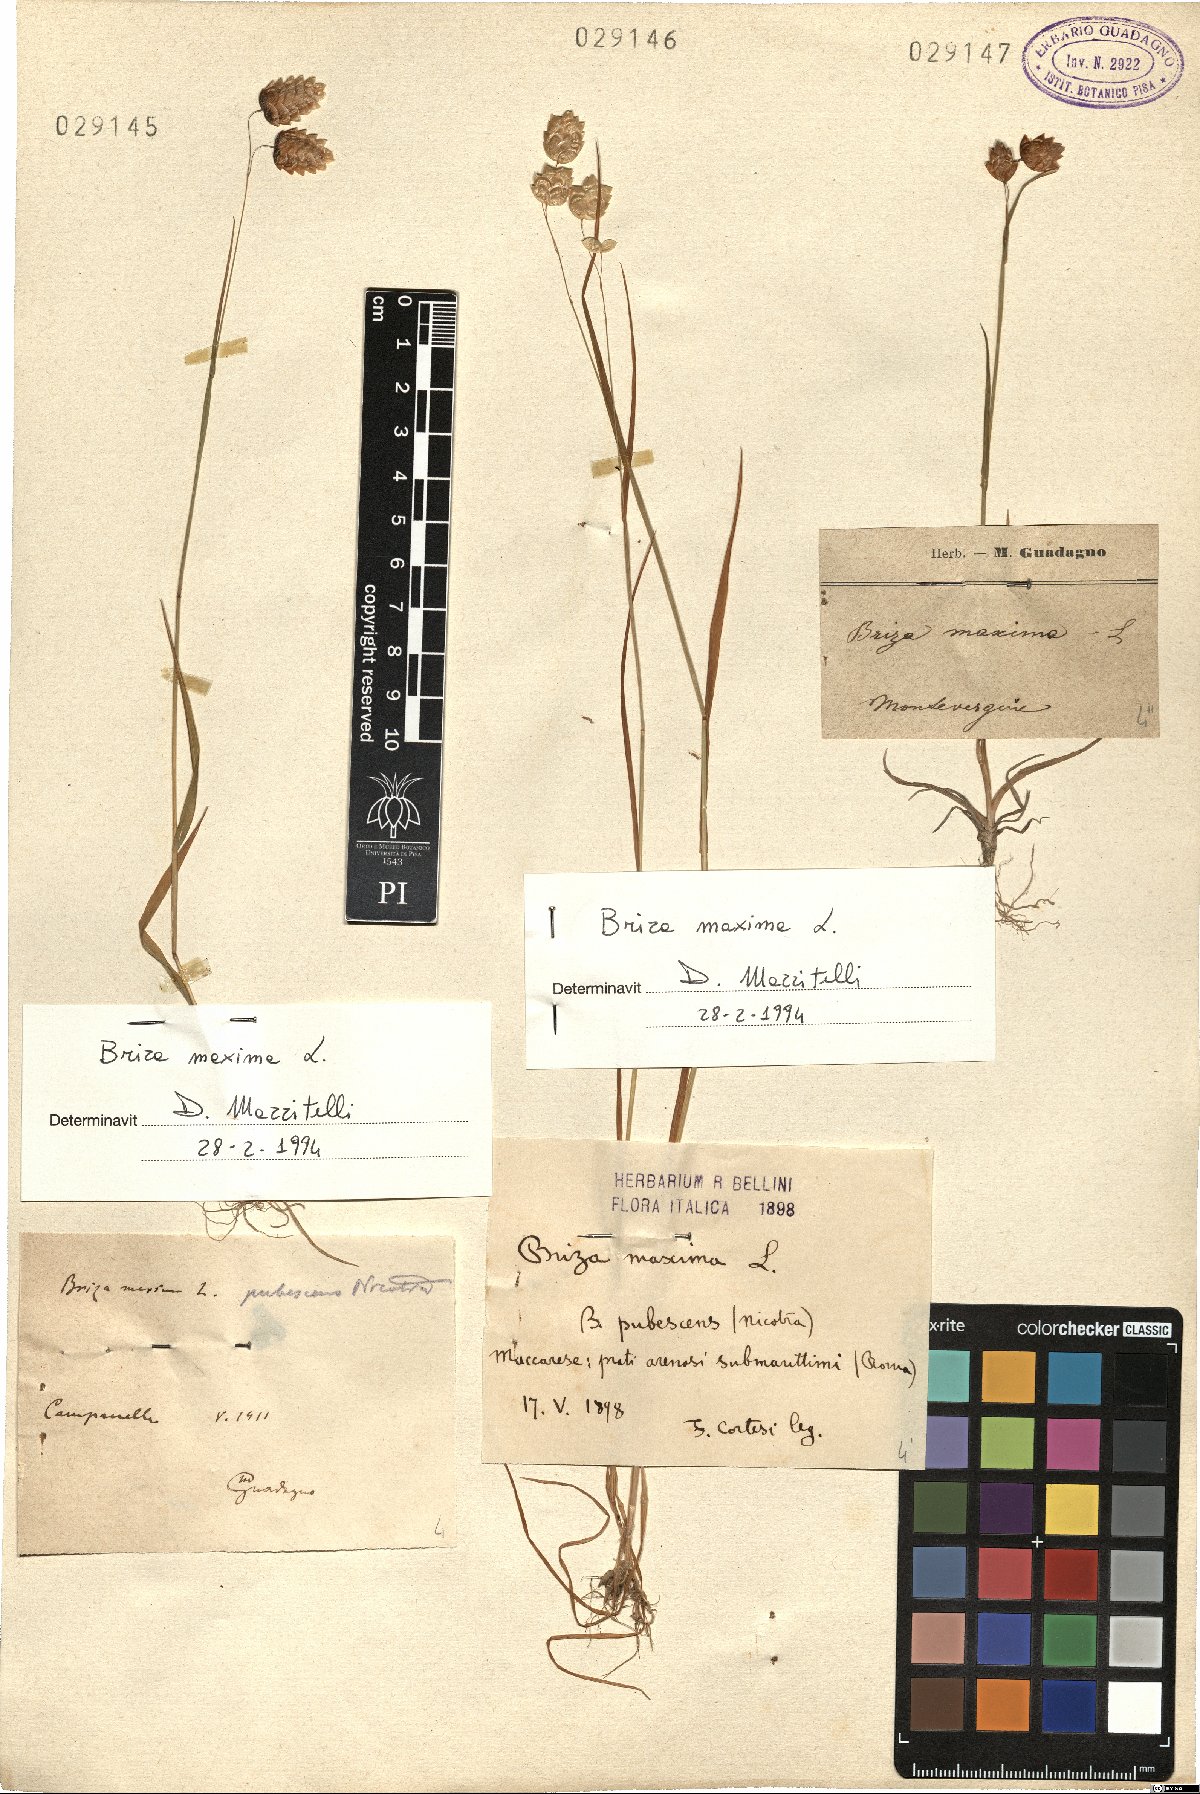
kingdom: Plantae
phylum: Tracheophyta
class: Liliopsida
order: Poales
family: Poaceae
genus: Briza
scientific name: Briza maxima
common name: Big quakinggrass
